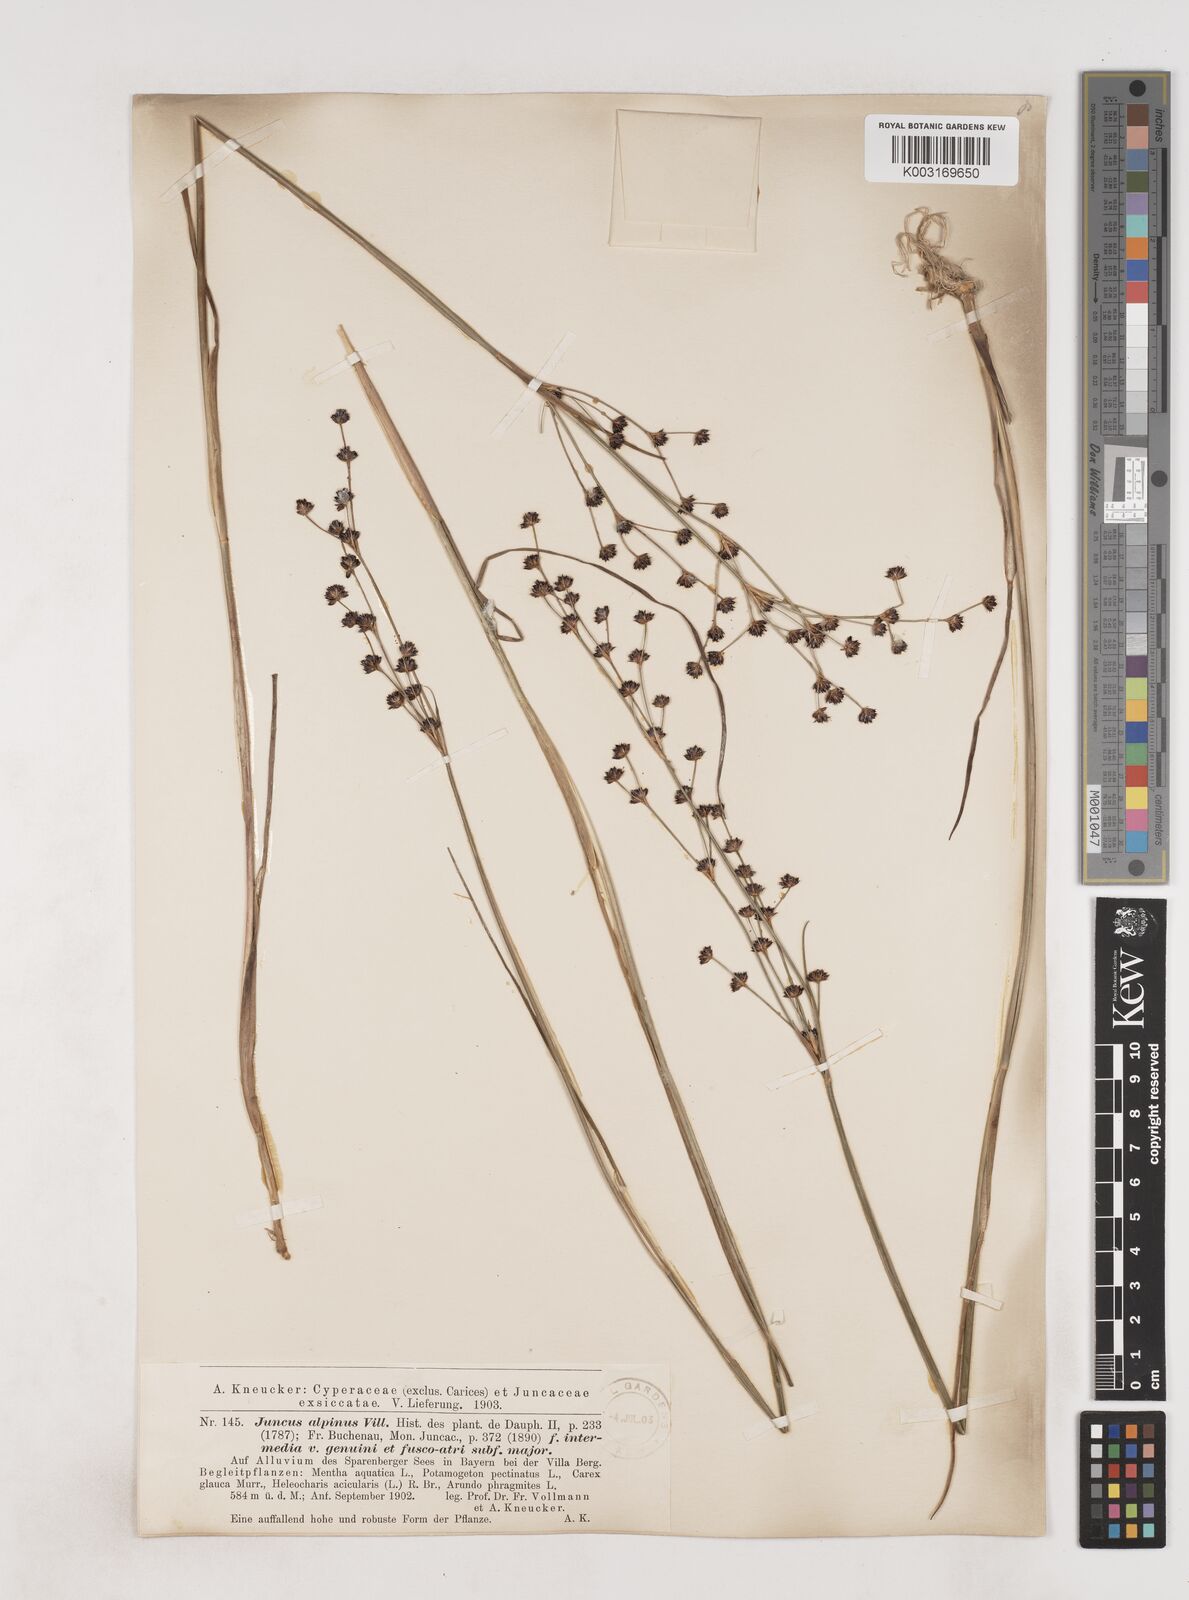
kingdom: Plantae
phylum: Tracheophyta
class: Liliopsida
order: Poales
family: Juncaceae
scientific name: Juncaceae
